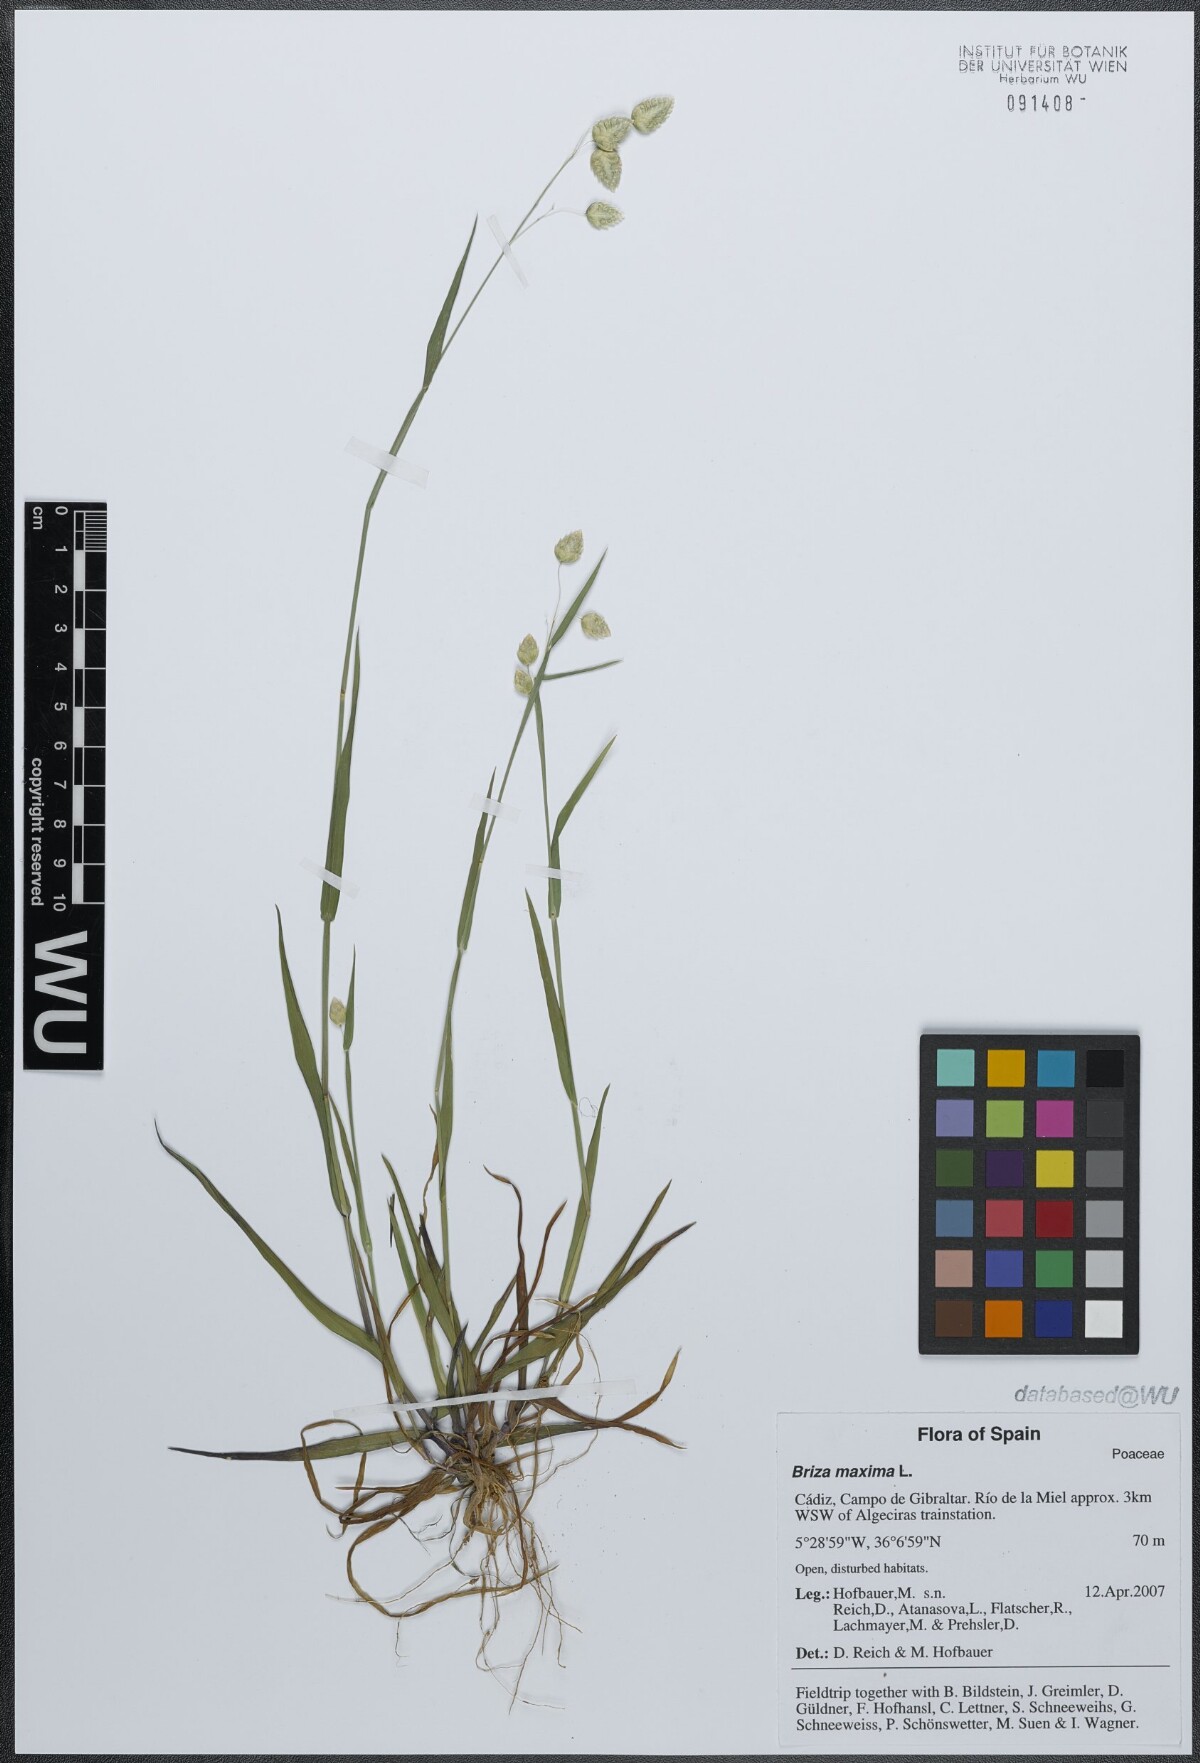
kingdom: Plantae
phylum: Tracheophyta
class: Liliopsida
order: Poales
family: Poaceae
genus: Briza
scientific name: Briza maxima
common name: Big quakinggrass
